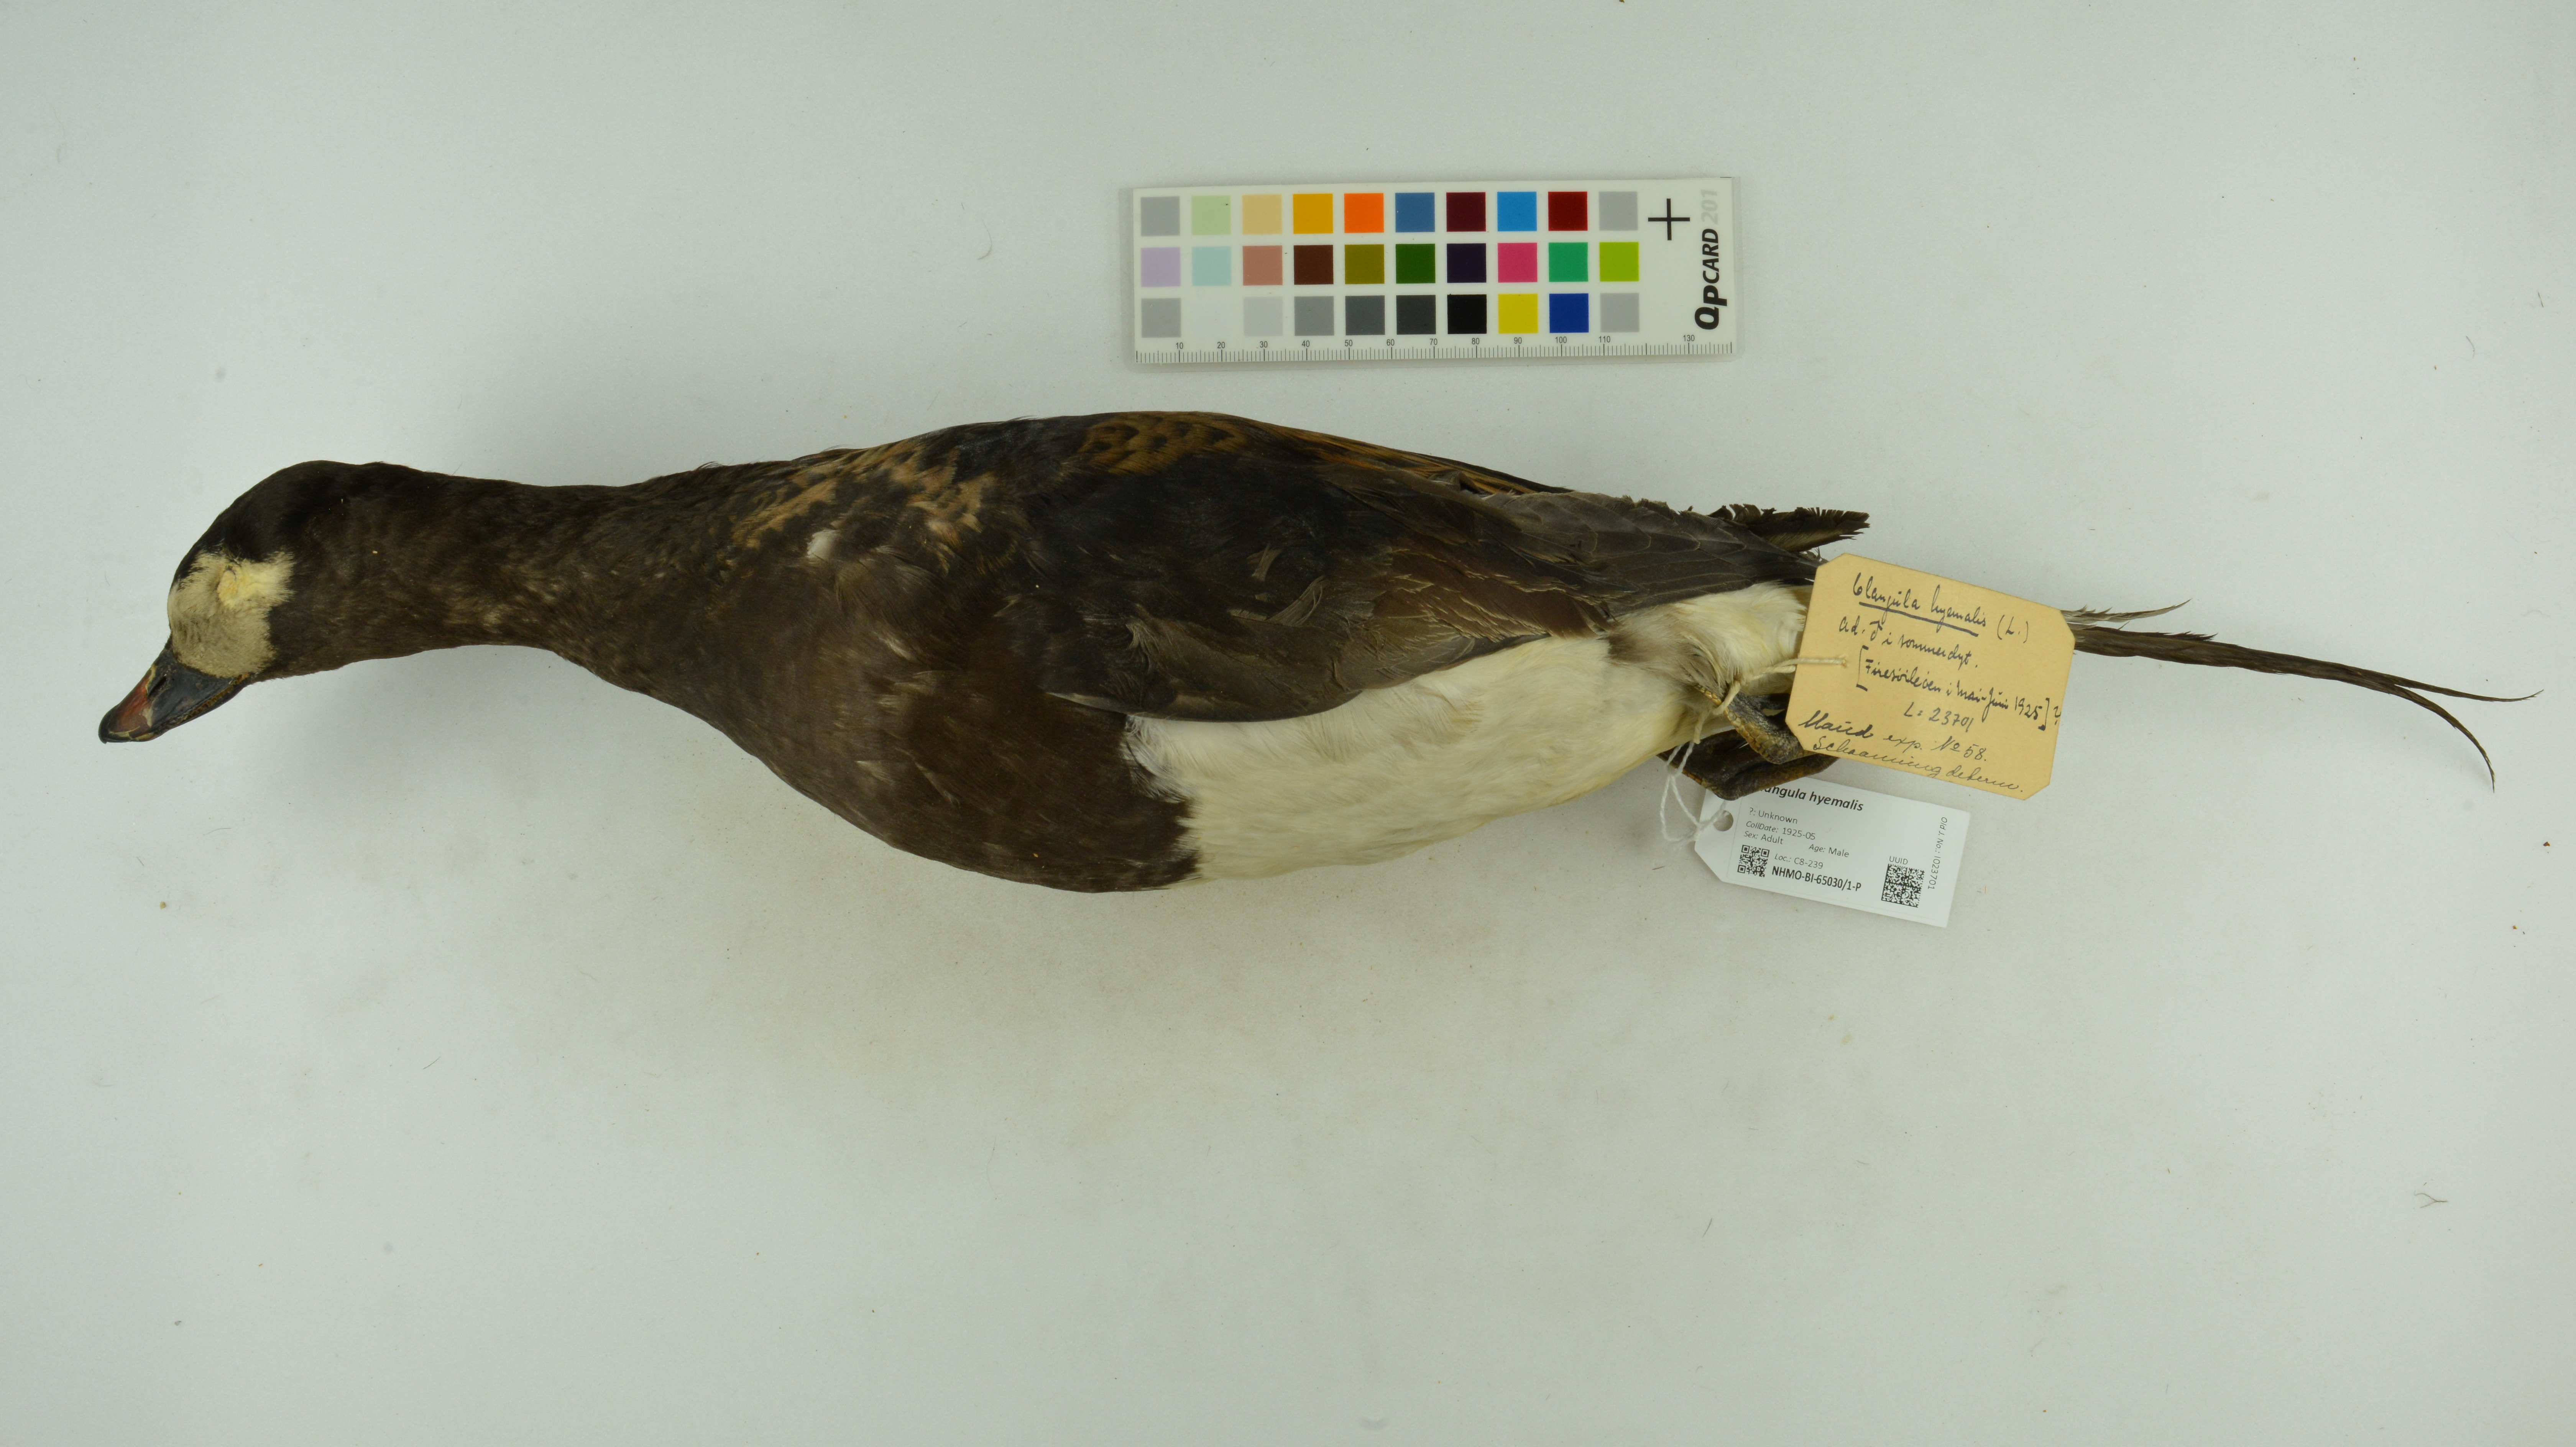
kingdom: Animalia
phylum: Chordata
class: Aves
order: Anseriformes
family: Anatidae
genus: Clangula
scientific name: Clangula hyemalis
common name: Long-tailed duck
